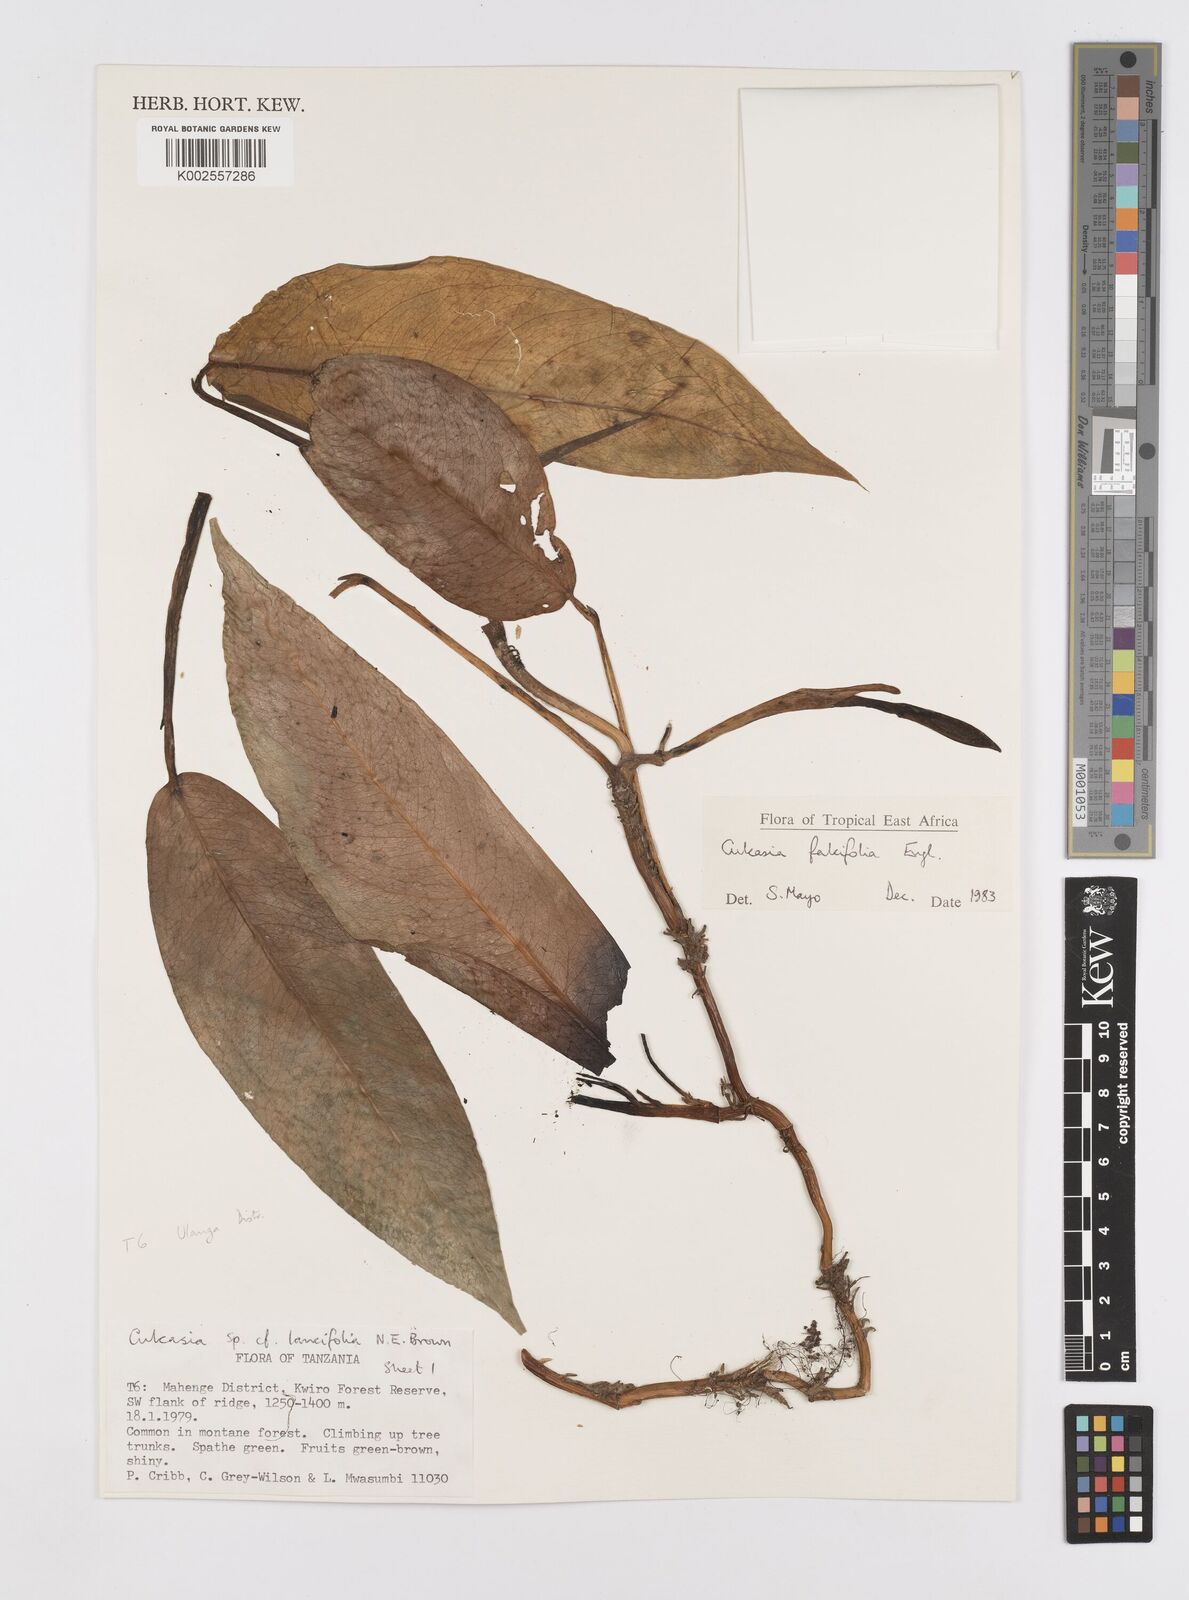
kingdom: Plantae
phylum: Tracheophyta
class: Liliopsida
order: Alismatales
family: Araceae
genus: Culcasia
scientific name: Culcasia falcifolia
